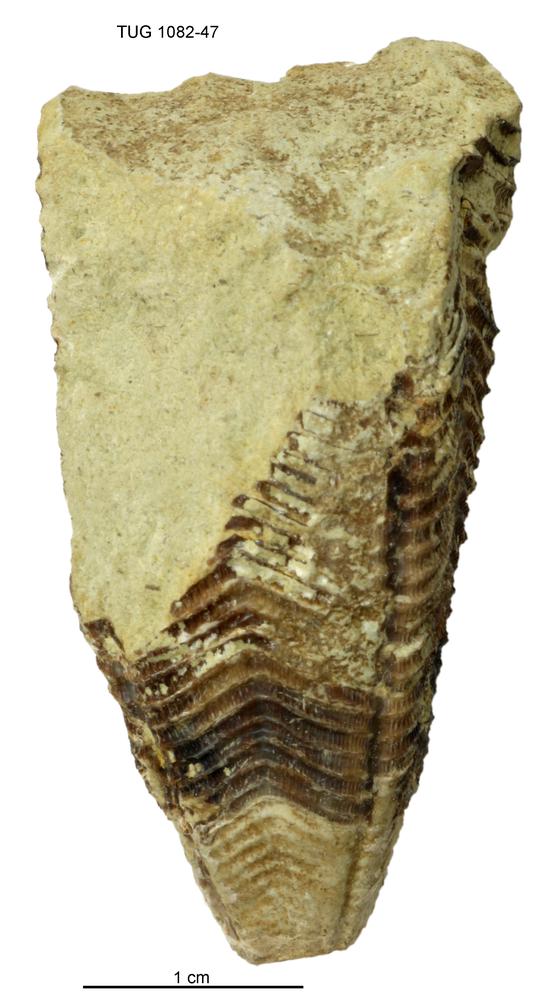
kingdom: Animalia
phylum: Cnidaria
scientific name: Cnidaria
